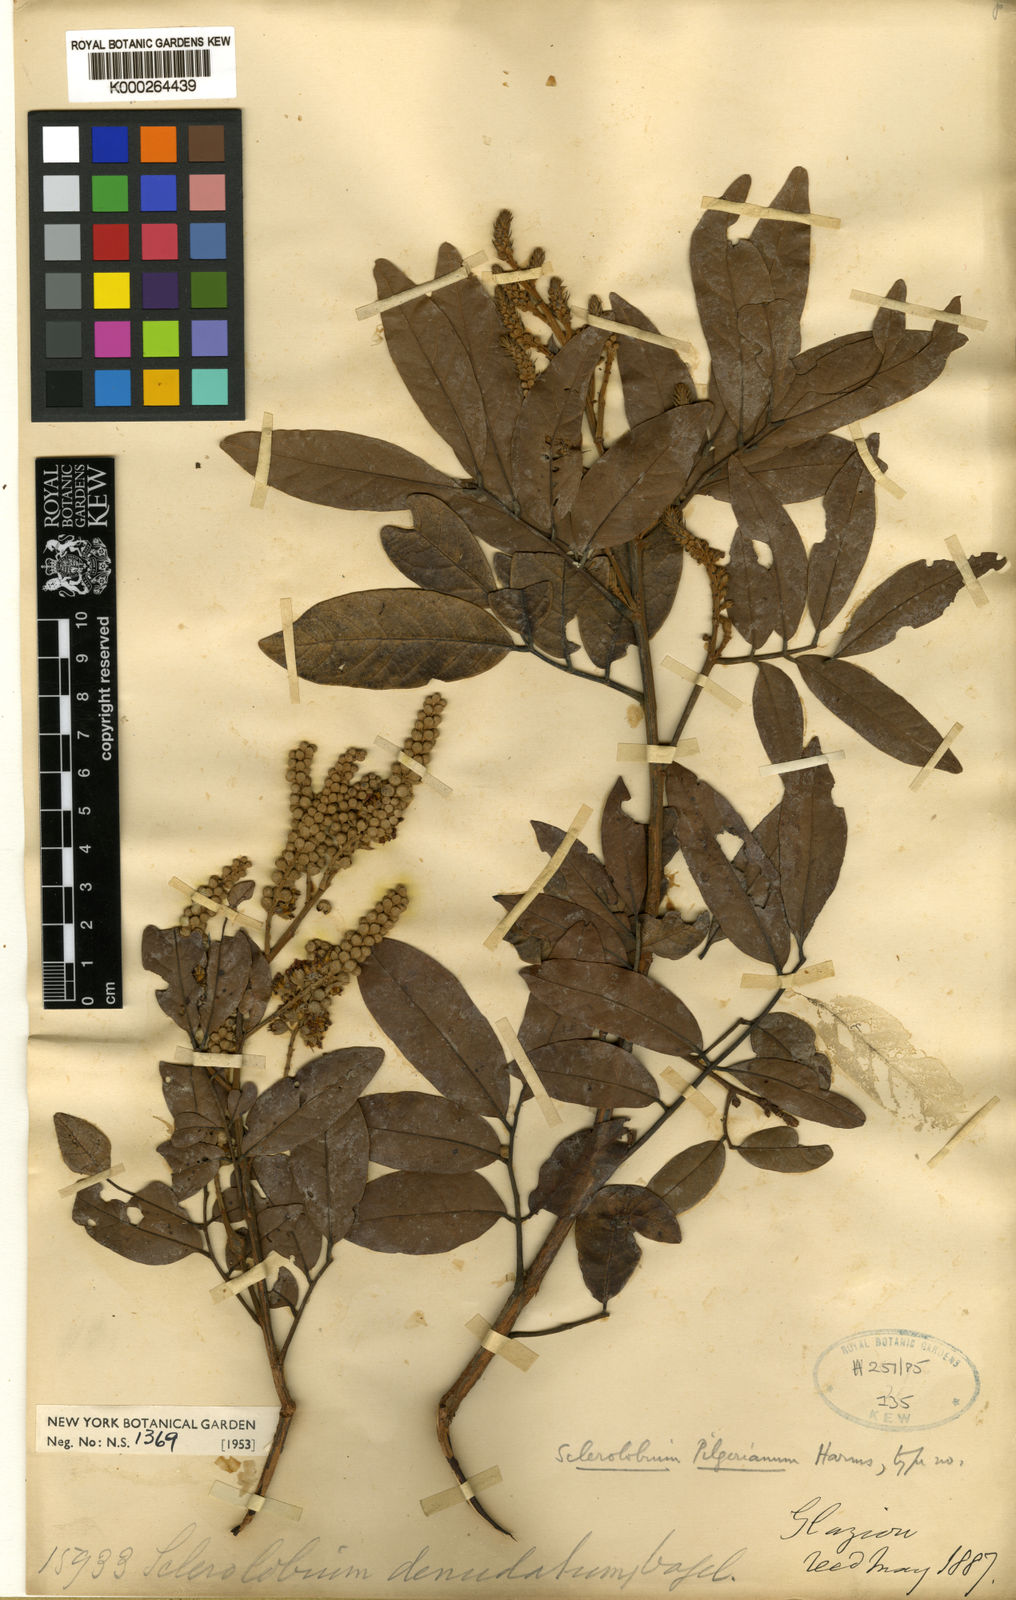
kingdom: Plantae
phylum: Tracheophyta
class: Magnoliopsida
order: Fabales
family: Fabaceae
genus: Tachigali
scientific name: Tachigali pilgeriana
